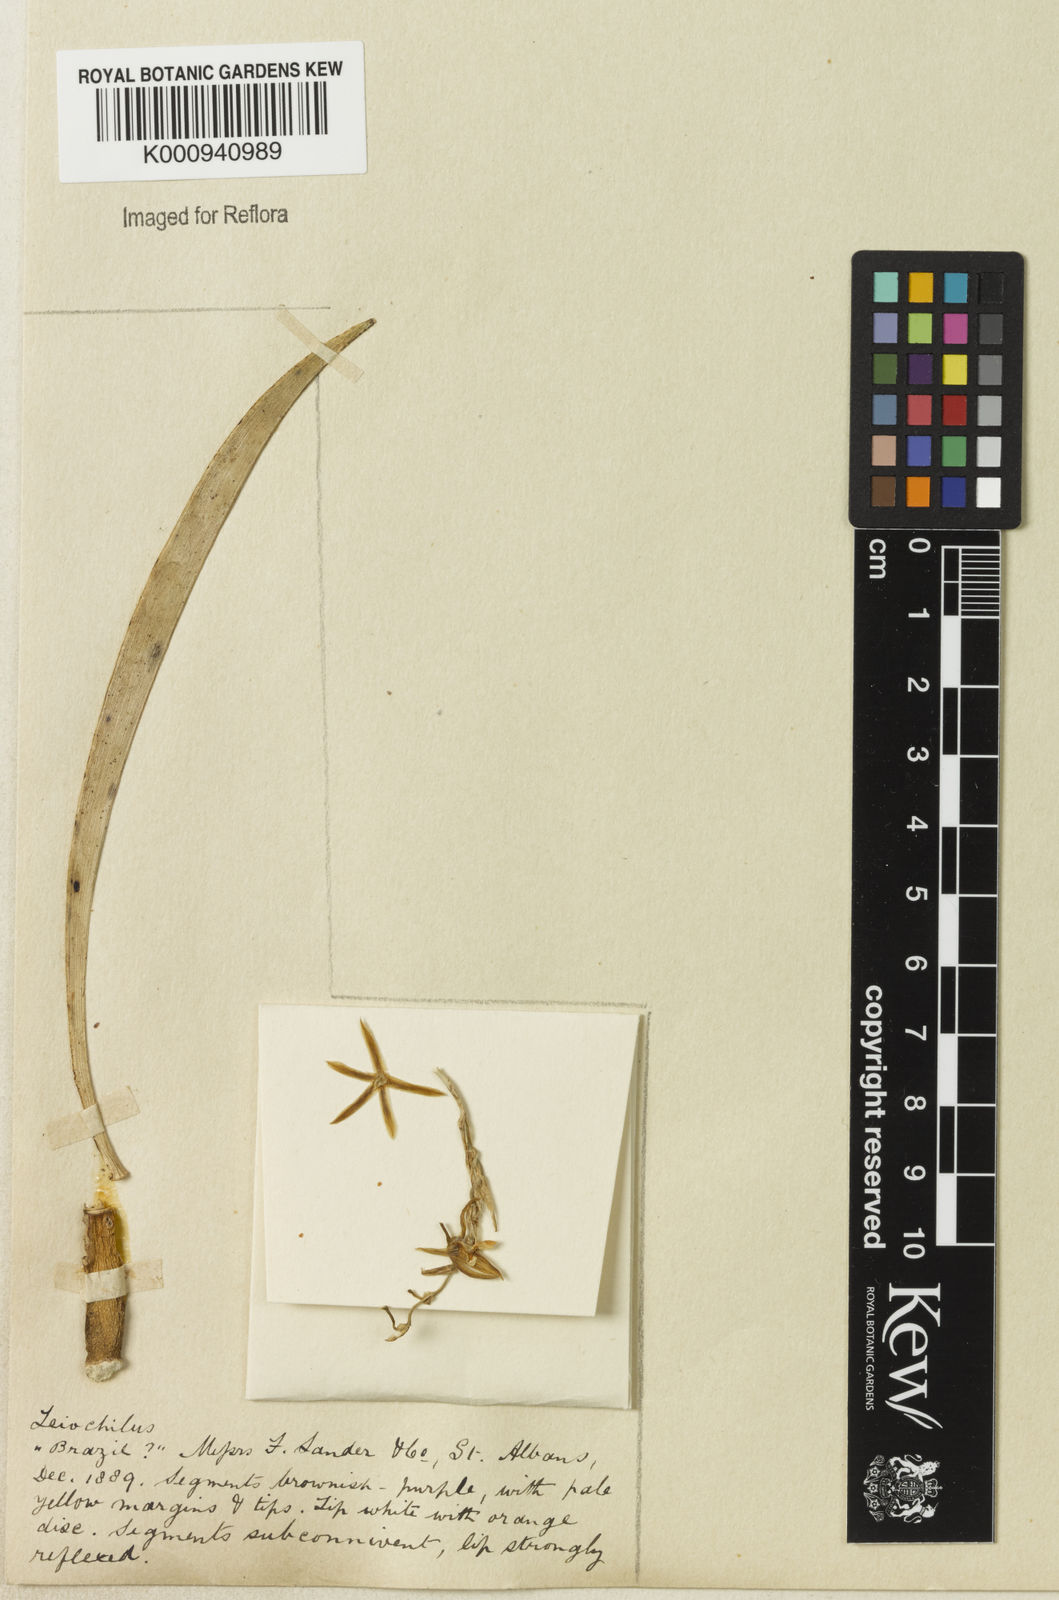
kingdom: Plantae
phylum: Tracheophyta
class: Liliopsida
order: Asparagales
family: Orchidaceae
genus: Leochilus
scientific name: Leochilus
